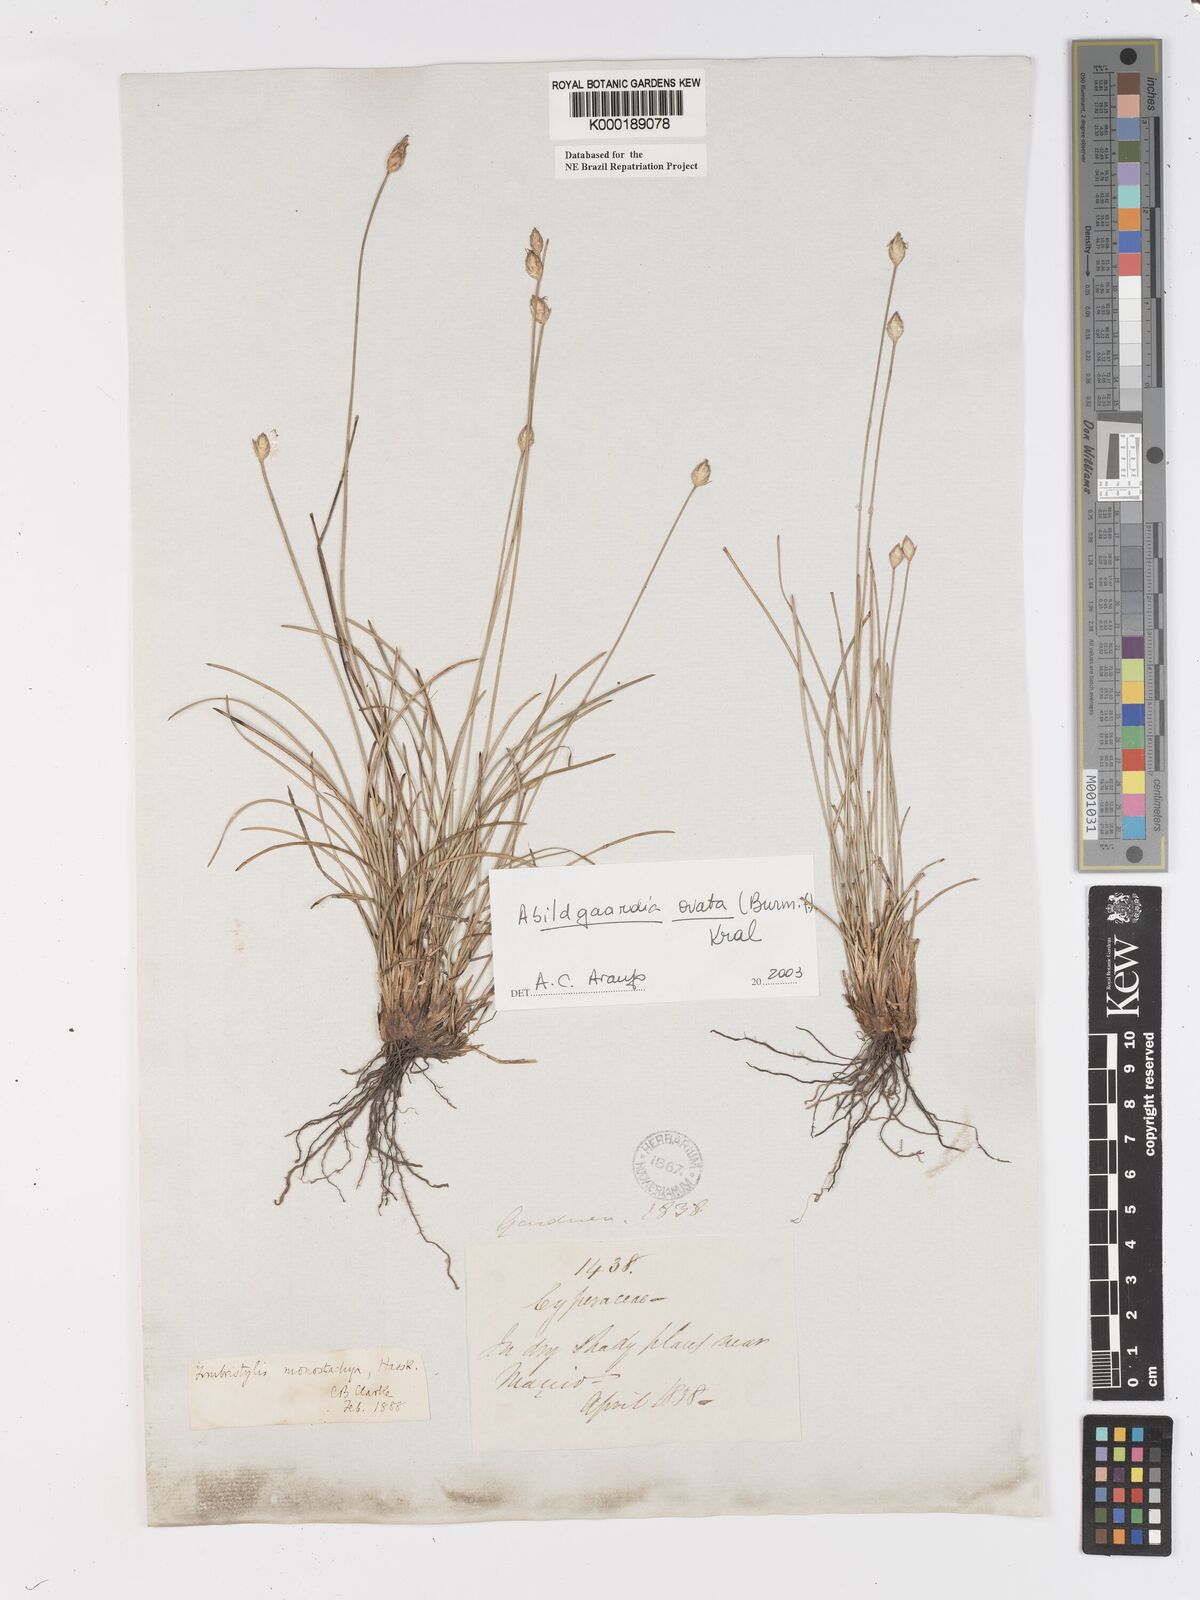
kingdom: Plantae
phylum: Tracheophyta
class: Liliopsida
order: Poales
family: Cyperaceae
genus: Abildgaardia
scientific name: Abildgaardia ovata
